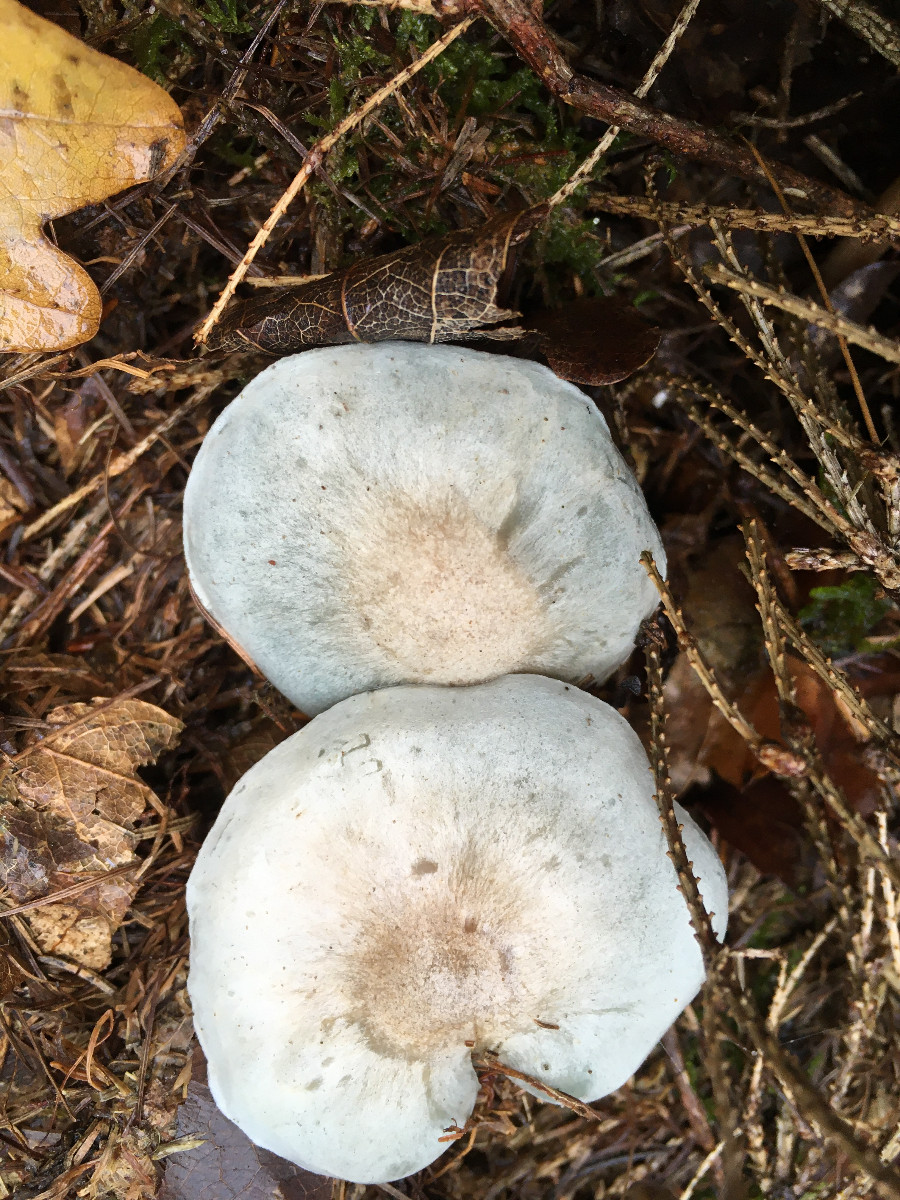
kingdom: Fungi
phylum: Basidiomycota
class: Agaricomycetes
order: Agaricales
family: Tricholomataceae
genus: Clitocybe
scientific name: Clitocybe odora
